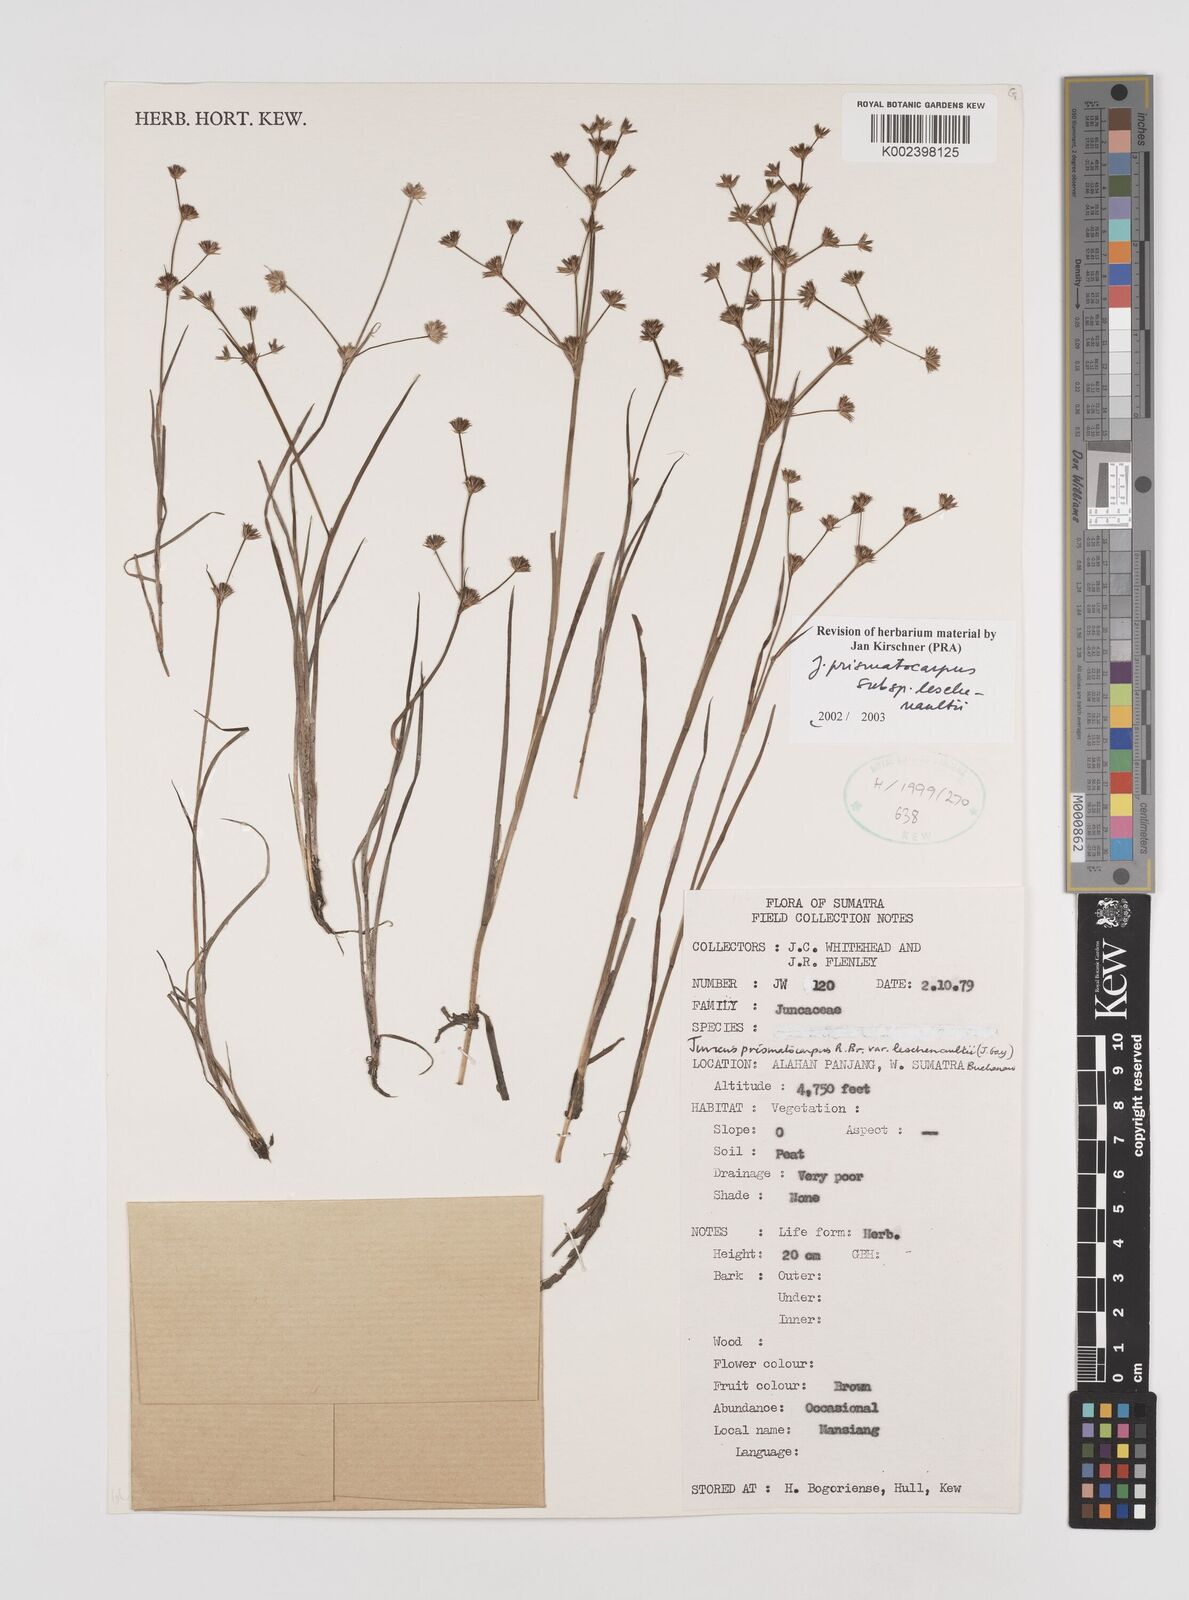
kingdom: Plantae
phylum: Tracheophyta
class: Liliopsida
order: Poales
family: Juncaceae
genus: Juncus
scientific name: Juncus prismatocarpus
